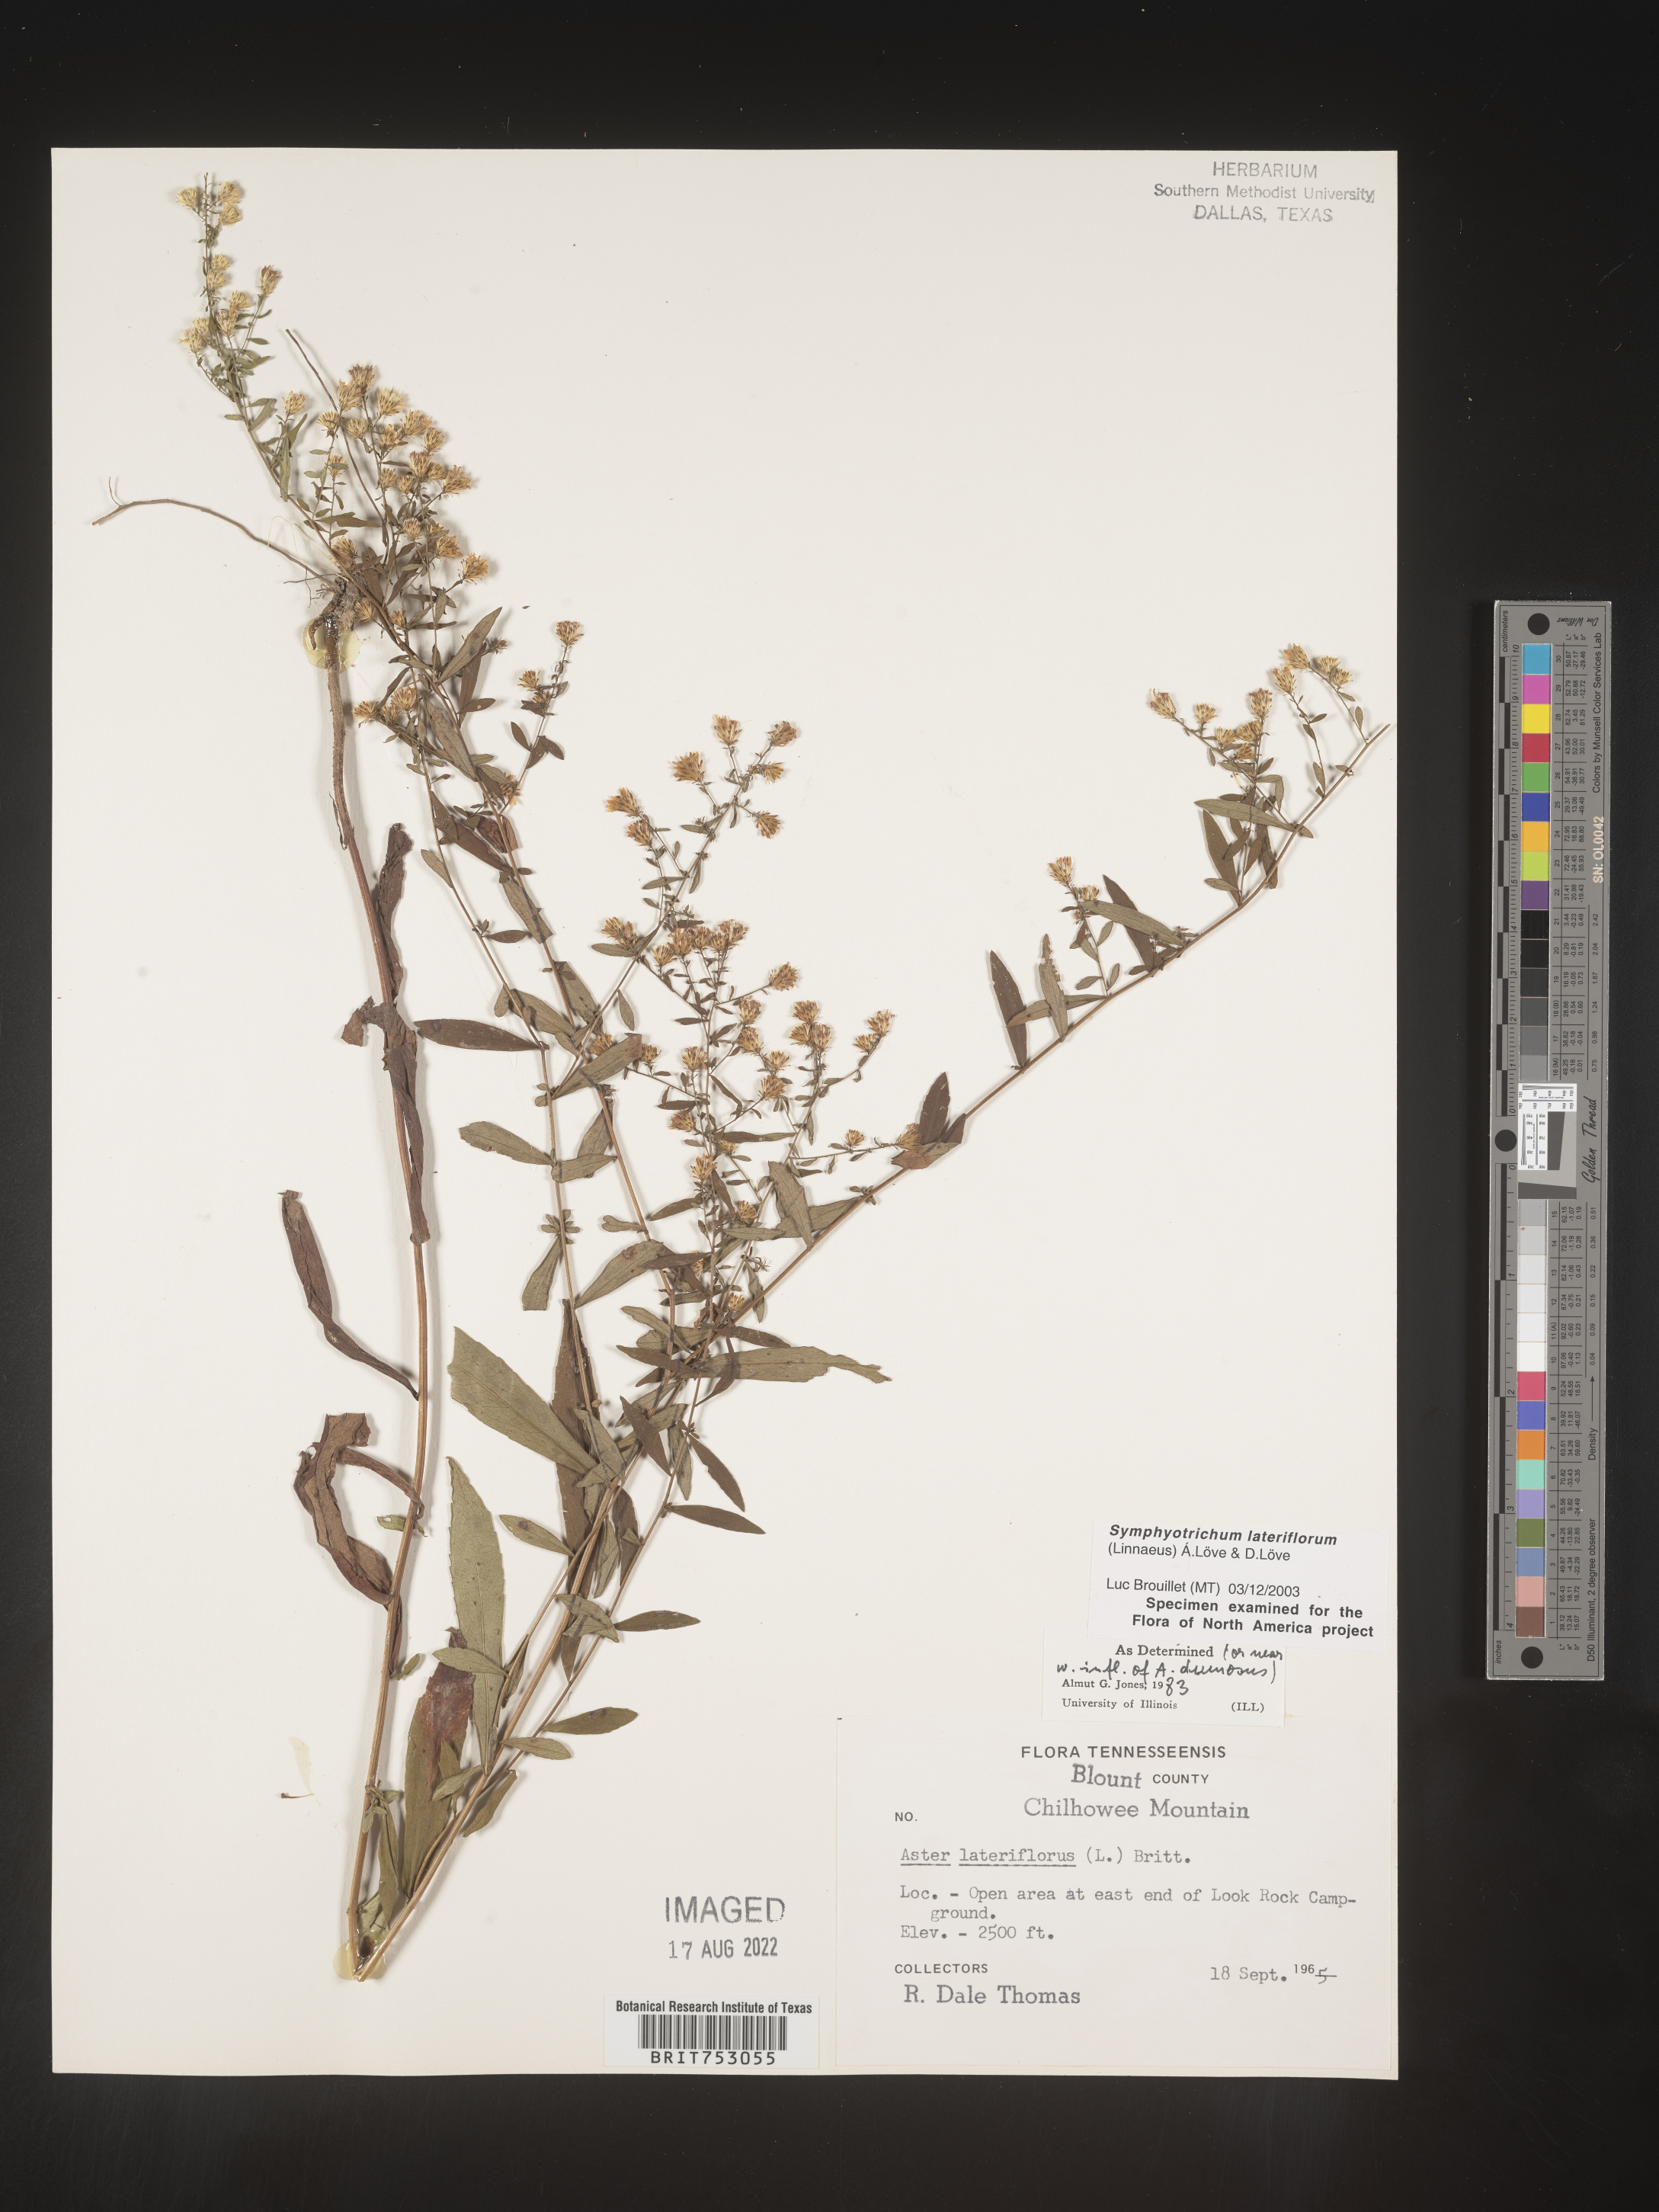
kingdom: Plantae
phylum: Tracheophyta
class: Magnoliopsida
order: Asterales
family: Asteraceae
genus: Symphyotrichum
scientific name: Symphyotrichum lateriflorum
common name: Calico aster
